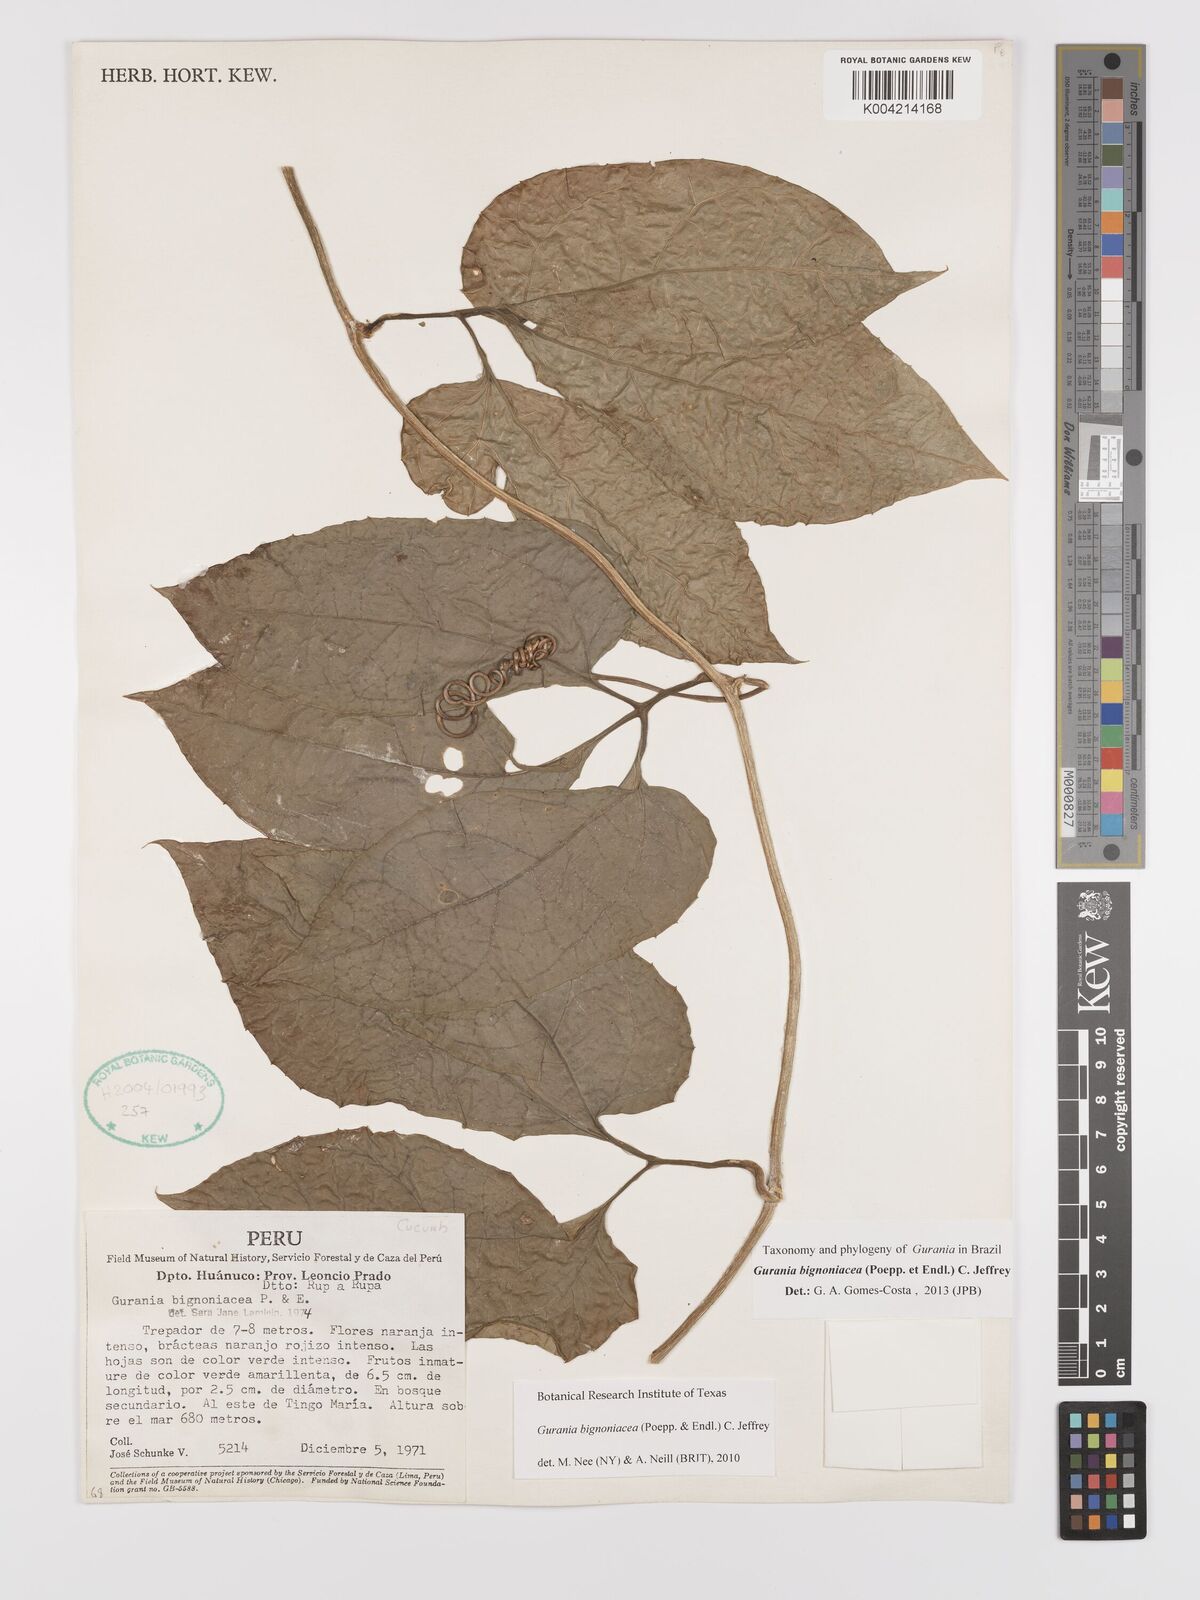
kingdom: Plantae
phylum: Tracheophyta
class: Magnoliopsida
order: Cucurbitales
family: Cucurbitaceae
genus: Gurania
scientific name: Gurania bignoniacea
